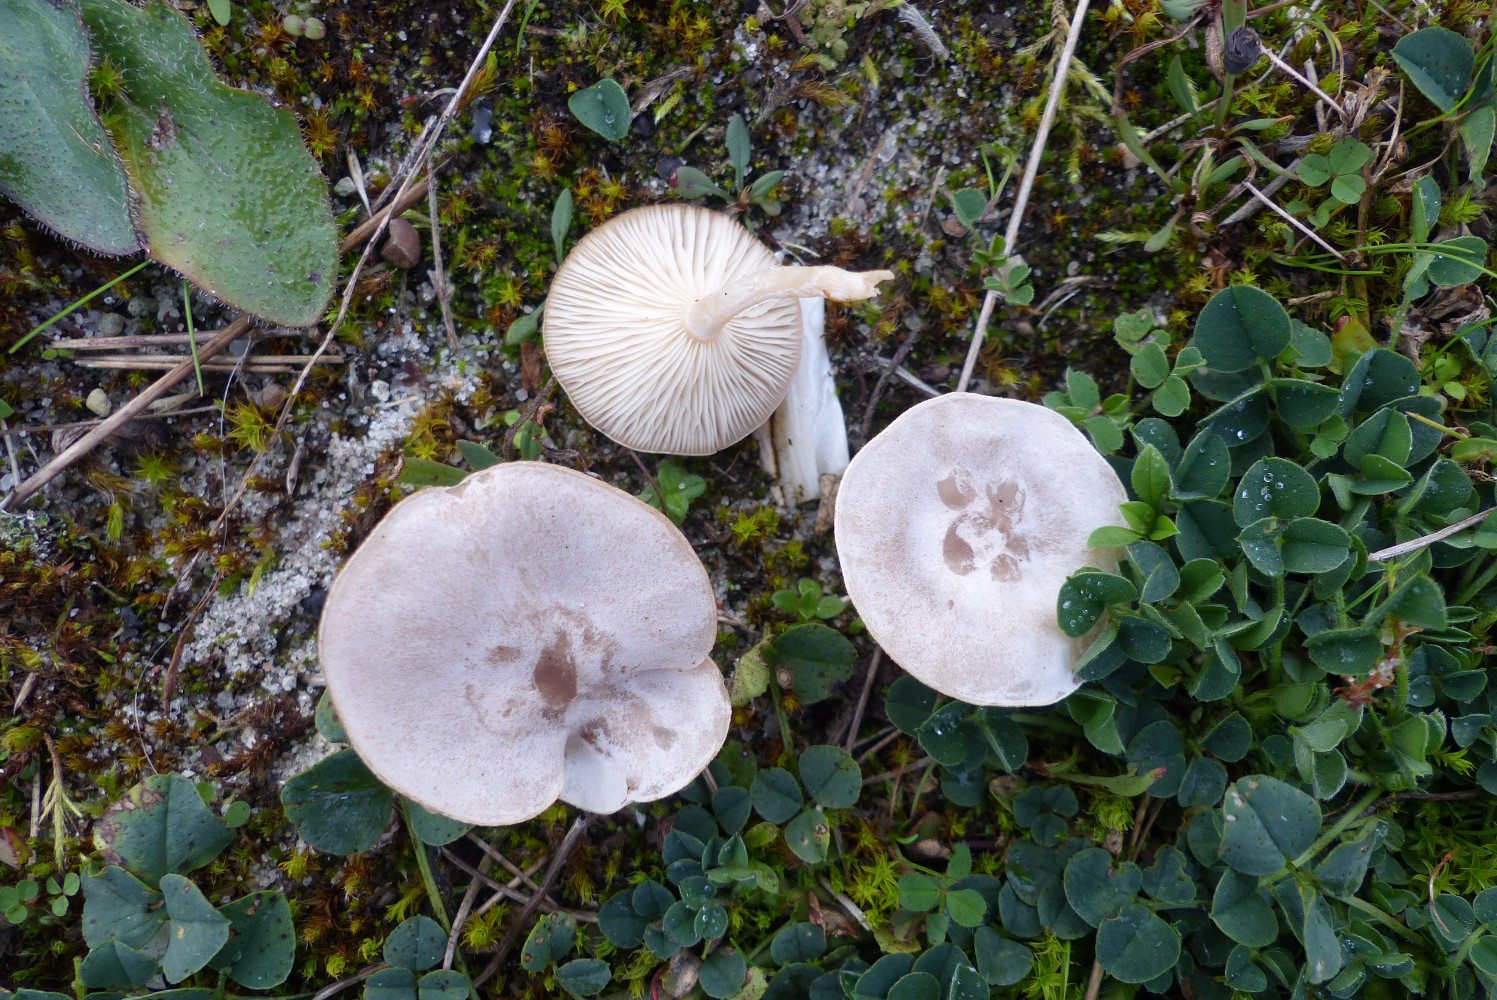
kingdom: Fungi
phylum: Basidiomycota
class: Agaricomycetes
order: Agaricales
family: Tricholomataceae
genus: Clitocybe
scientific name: Clitocybe
